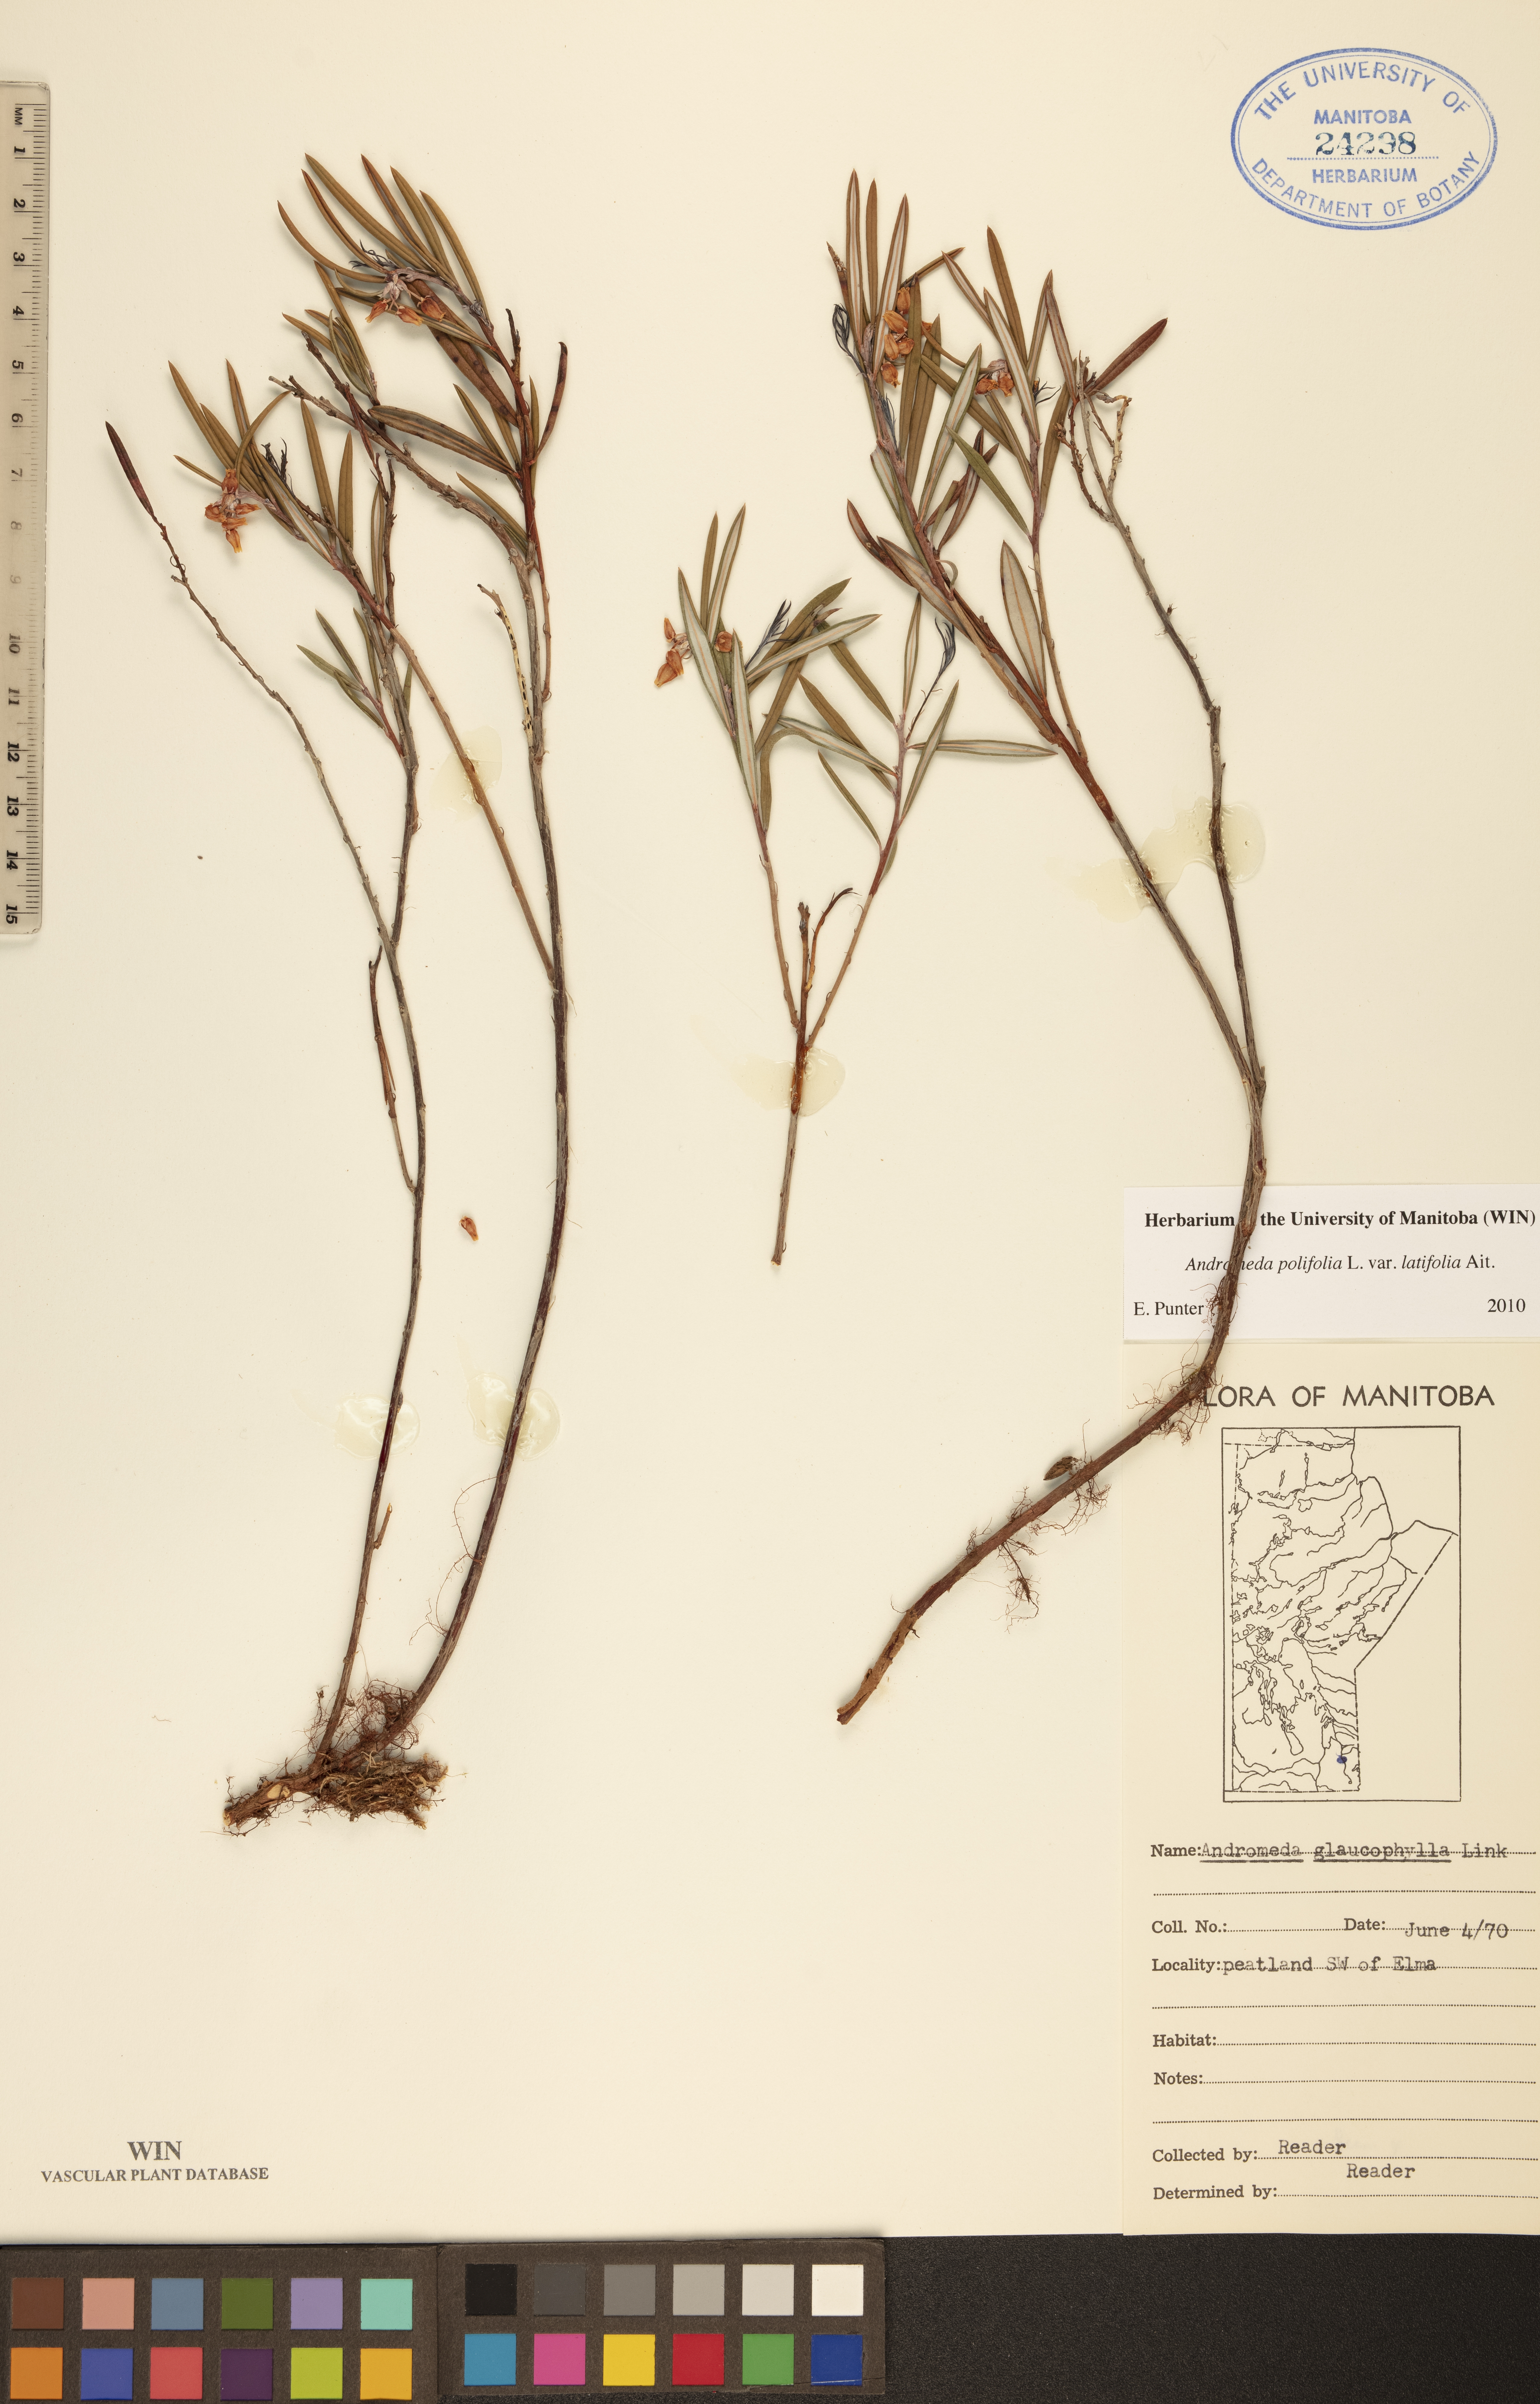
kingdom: Plantae
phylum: Tracheophyta
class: Magnoliopsida
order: Ericales
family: Ericaceae
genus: Andromeda
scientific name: Andromeda polifolia
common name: Bog-rosemary
